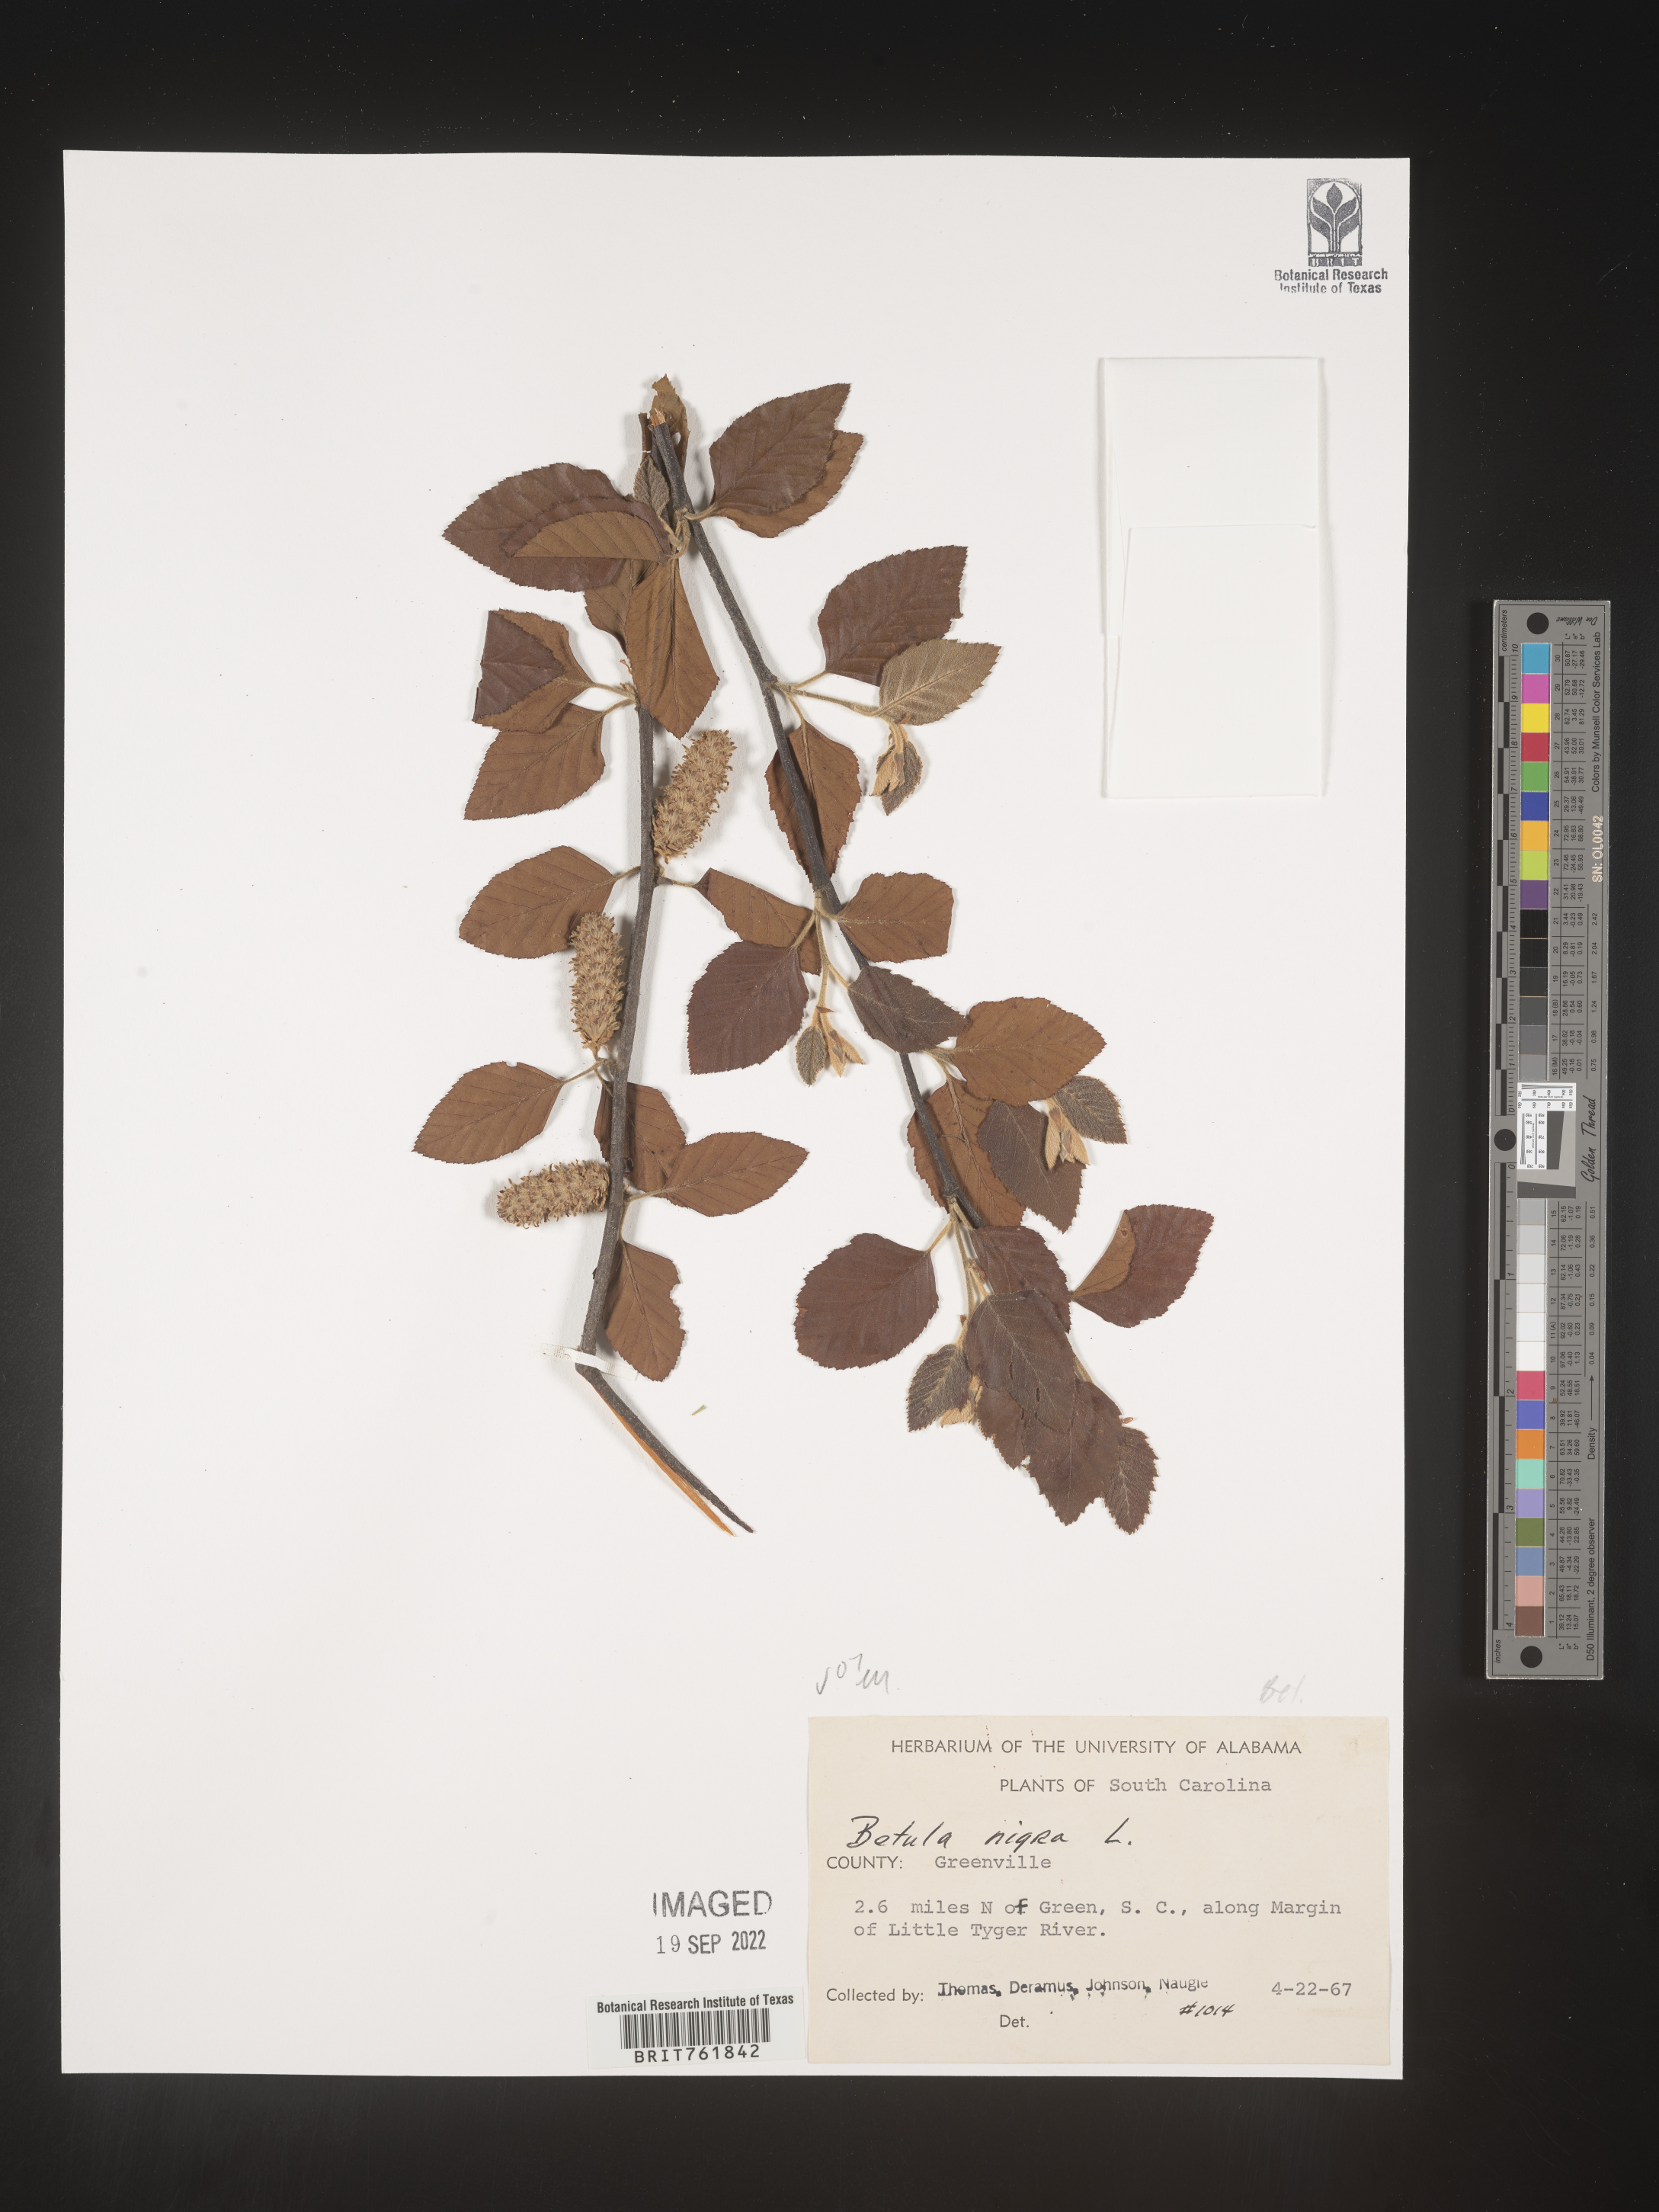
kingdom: Plantae
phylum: Tracheophyta
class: Magnoliopsida
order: Fagales
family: Betulaceae
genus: Betula
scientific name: Betula nigra
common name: Black birch
